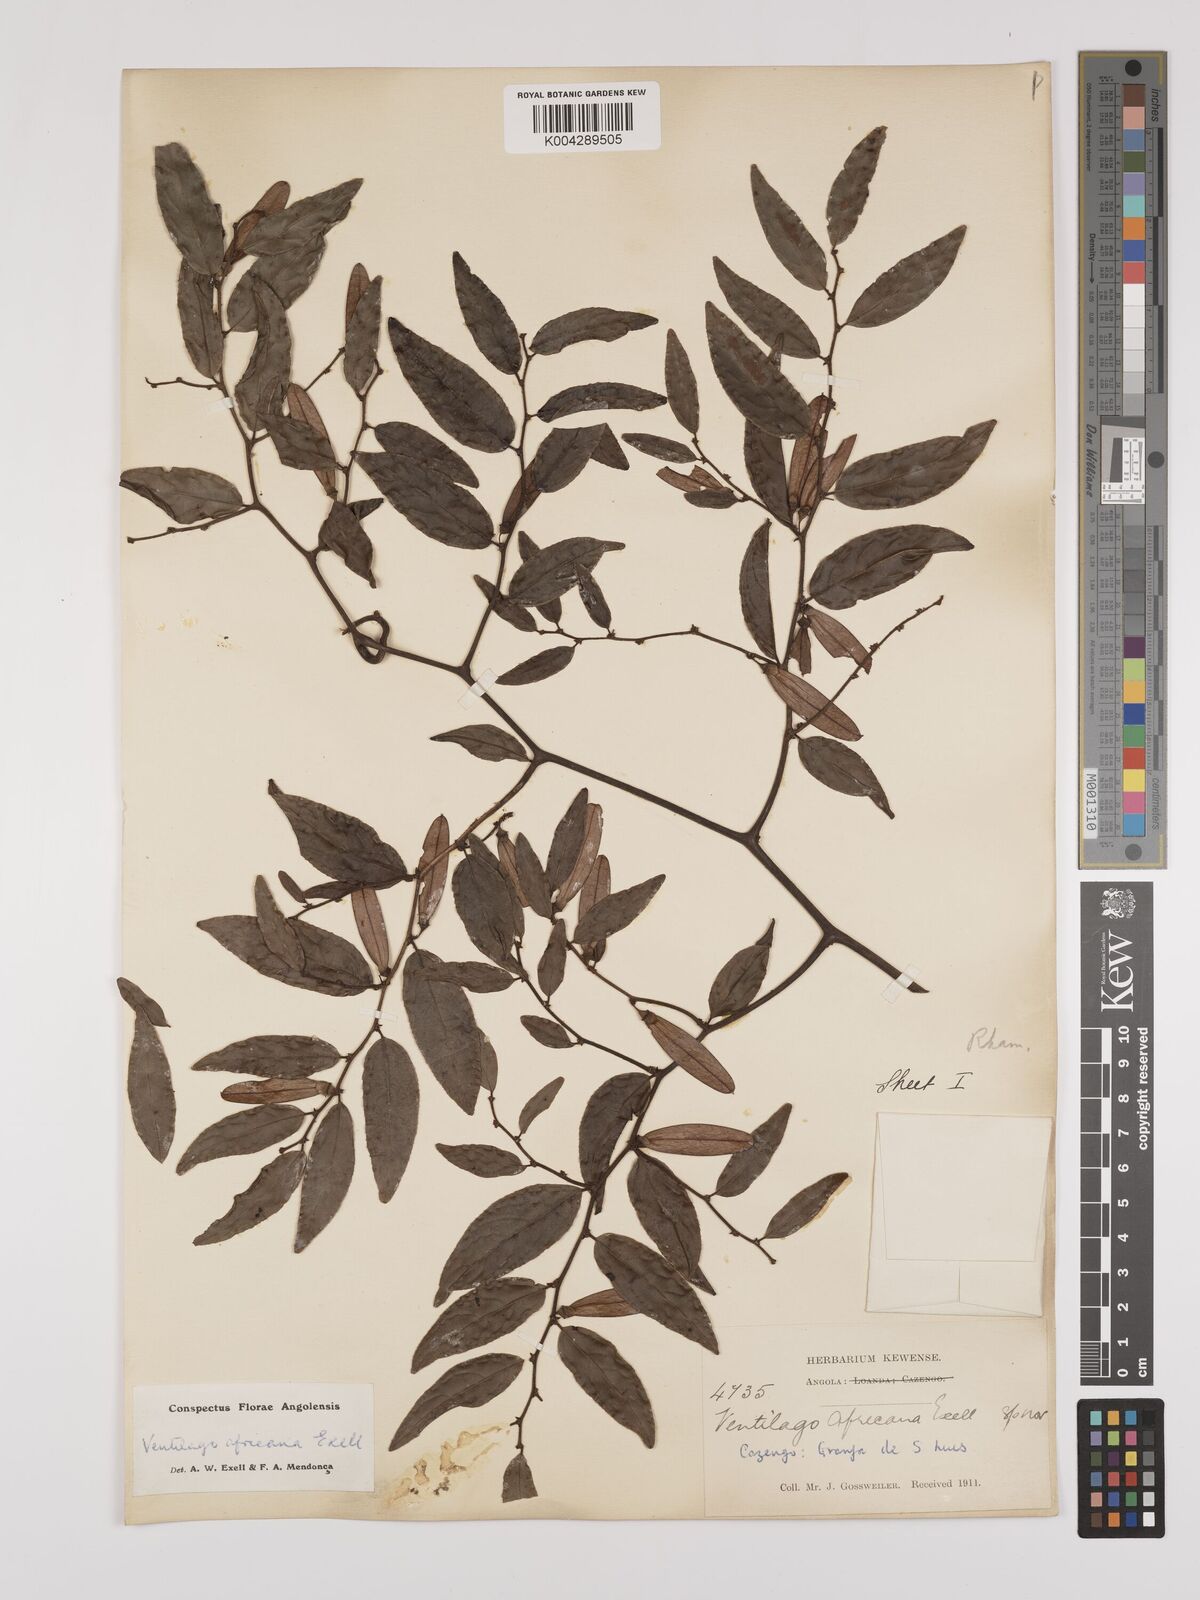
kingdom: Plantae
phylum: Tracheophyta
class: Magnoliopsida
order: Rosales
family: Rhamnaceae
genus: Ventilago
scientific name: Ventilago africana
